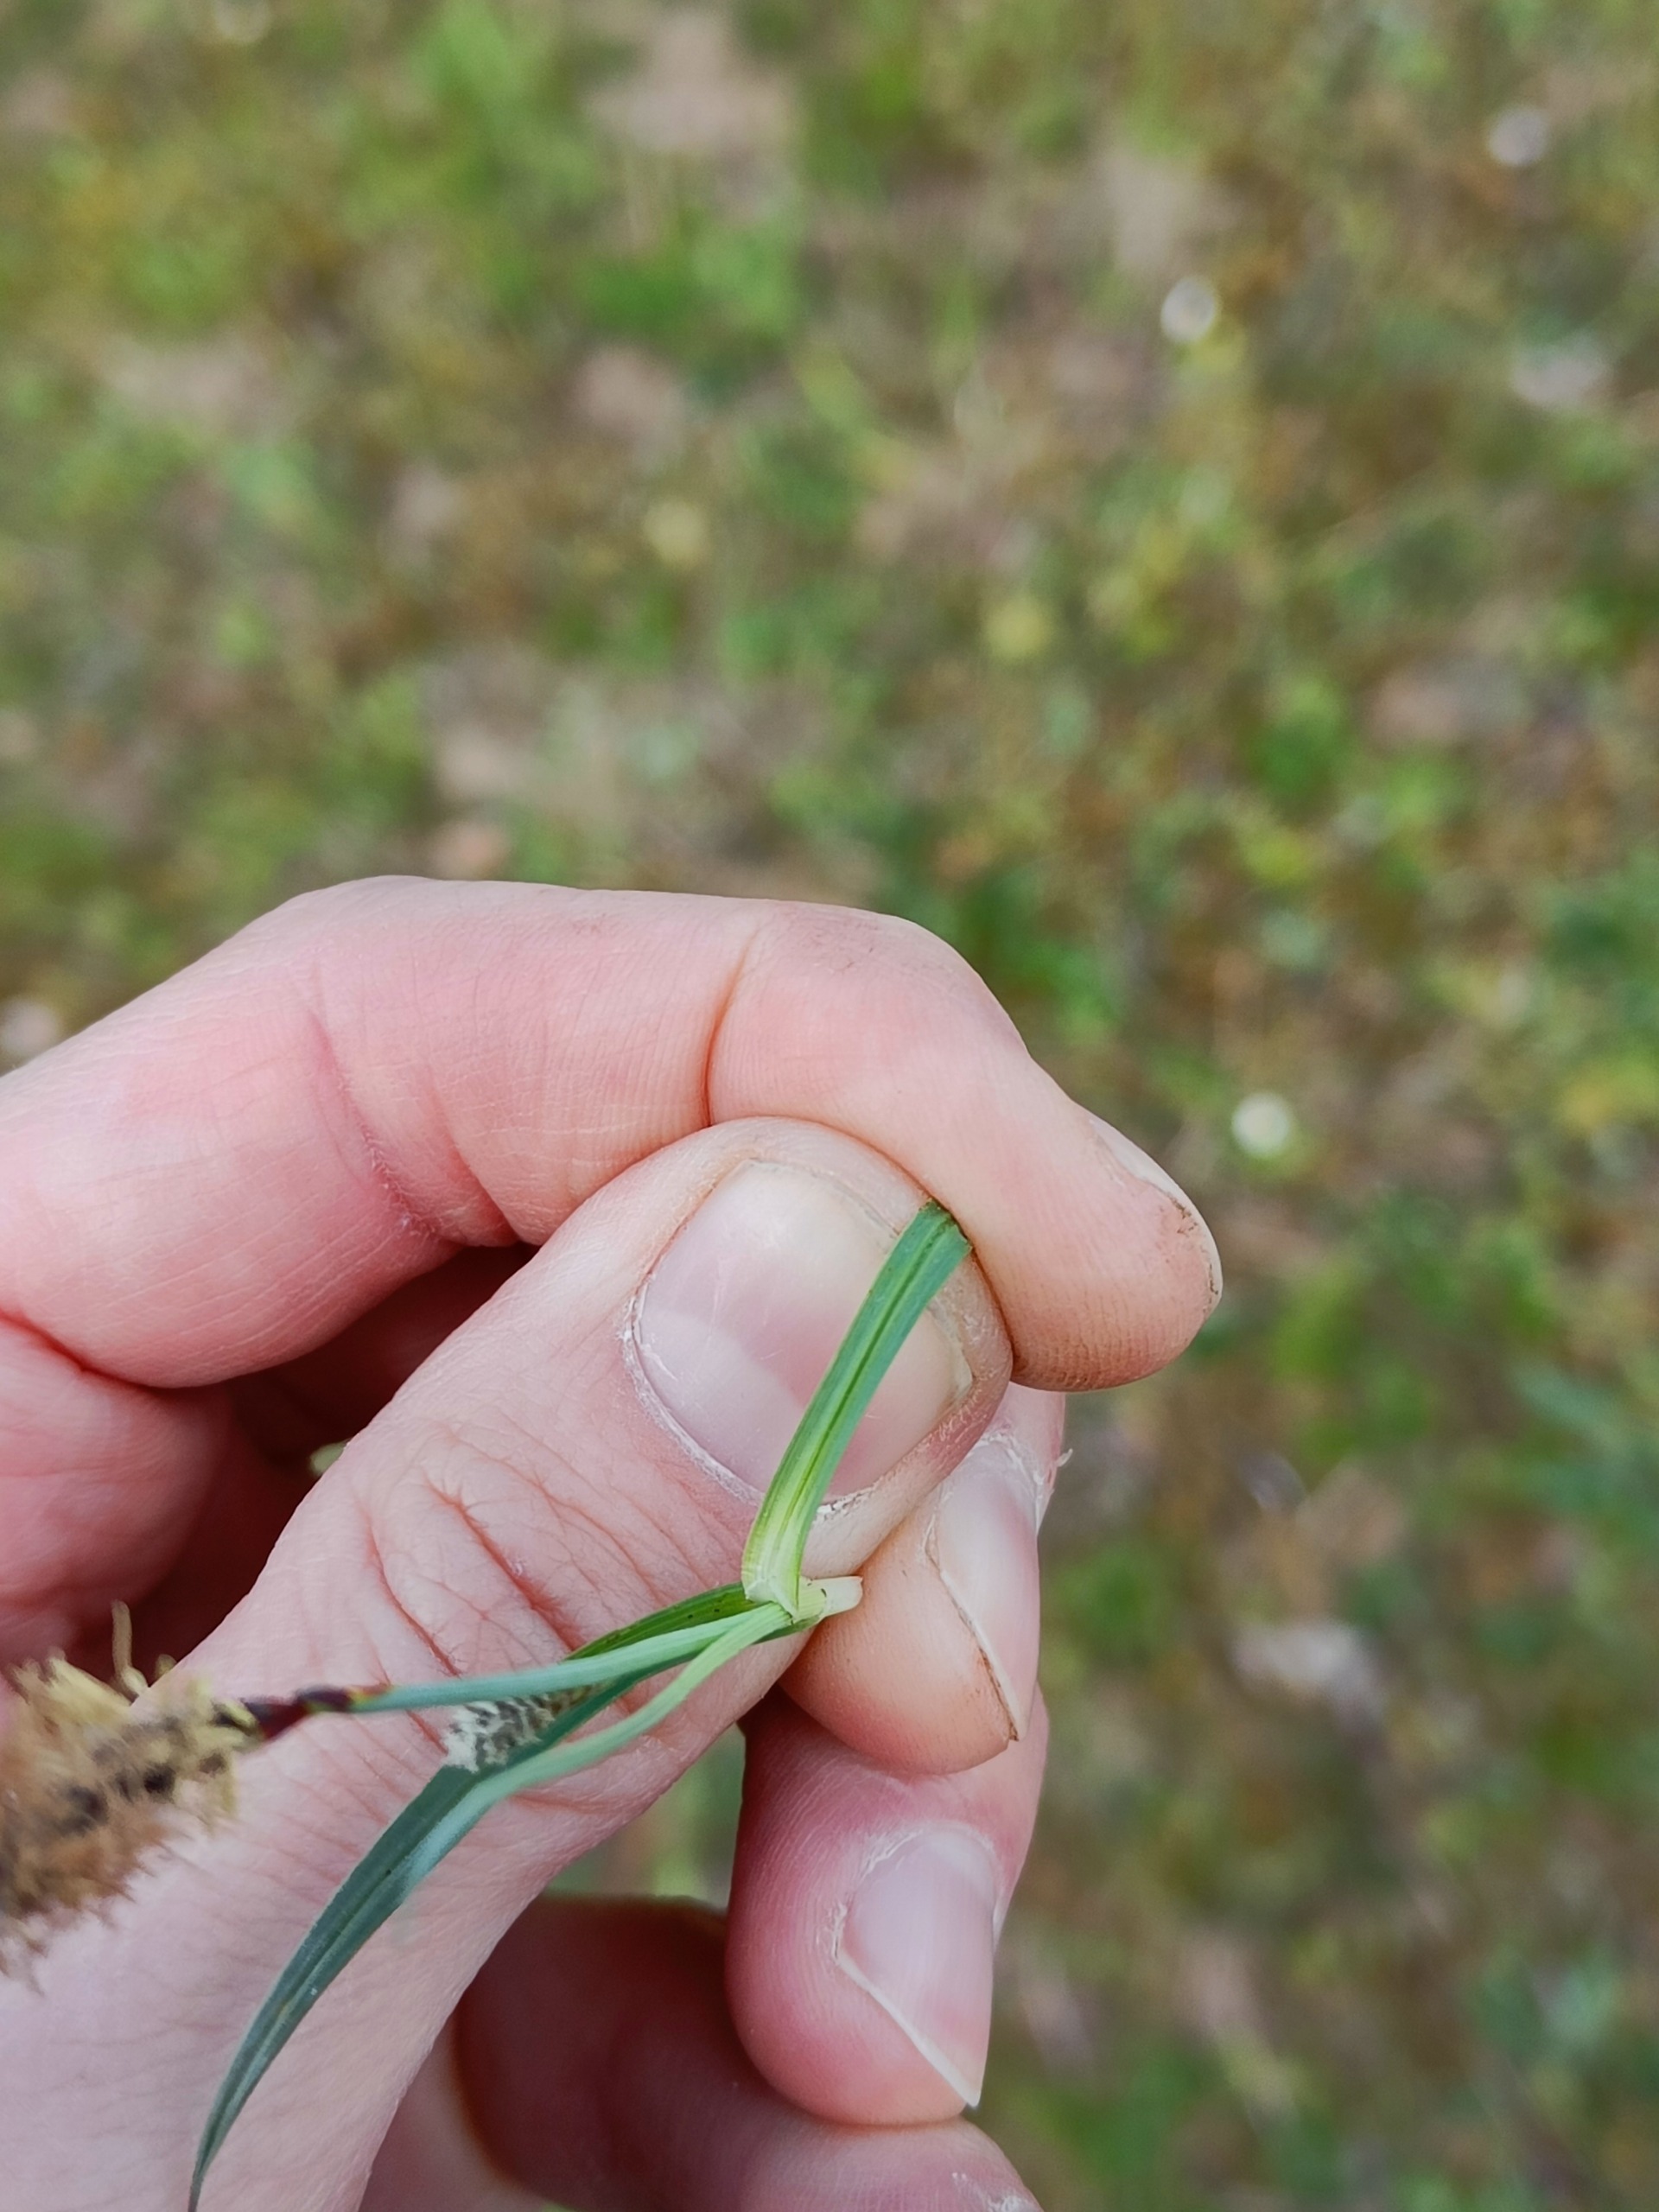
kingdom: Plantae
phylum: Tracheophyta
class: Liliopsida
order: Poales
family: Cyperaceae
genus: Carex
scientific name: Carex flacca
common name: Blågrøn star
